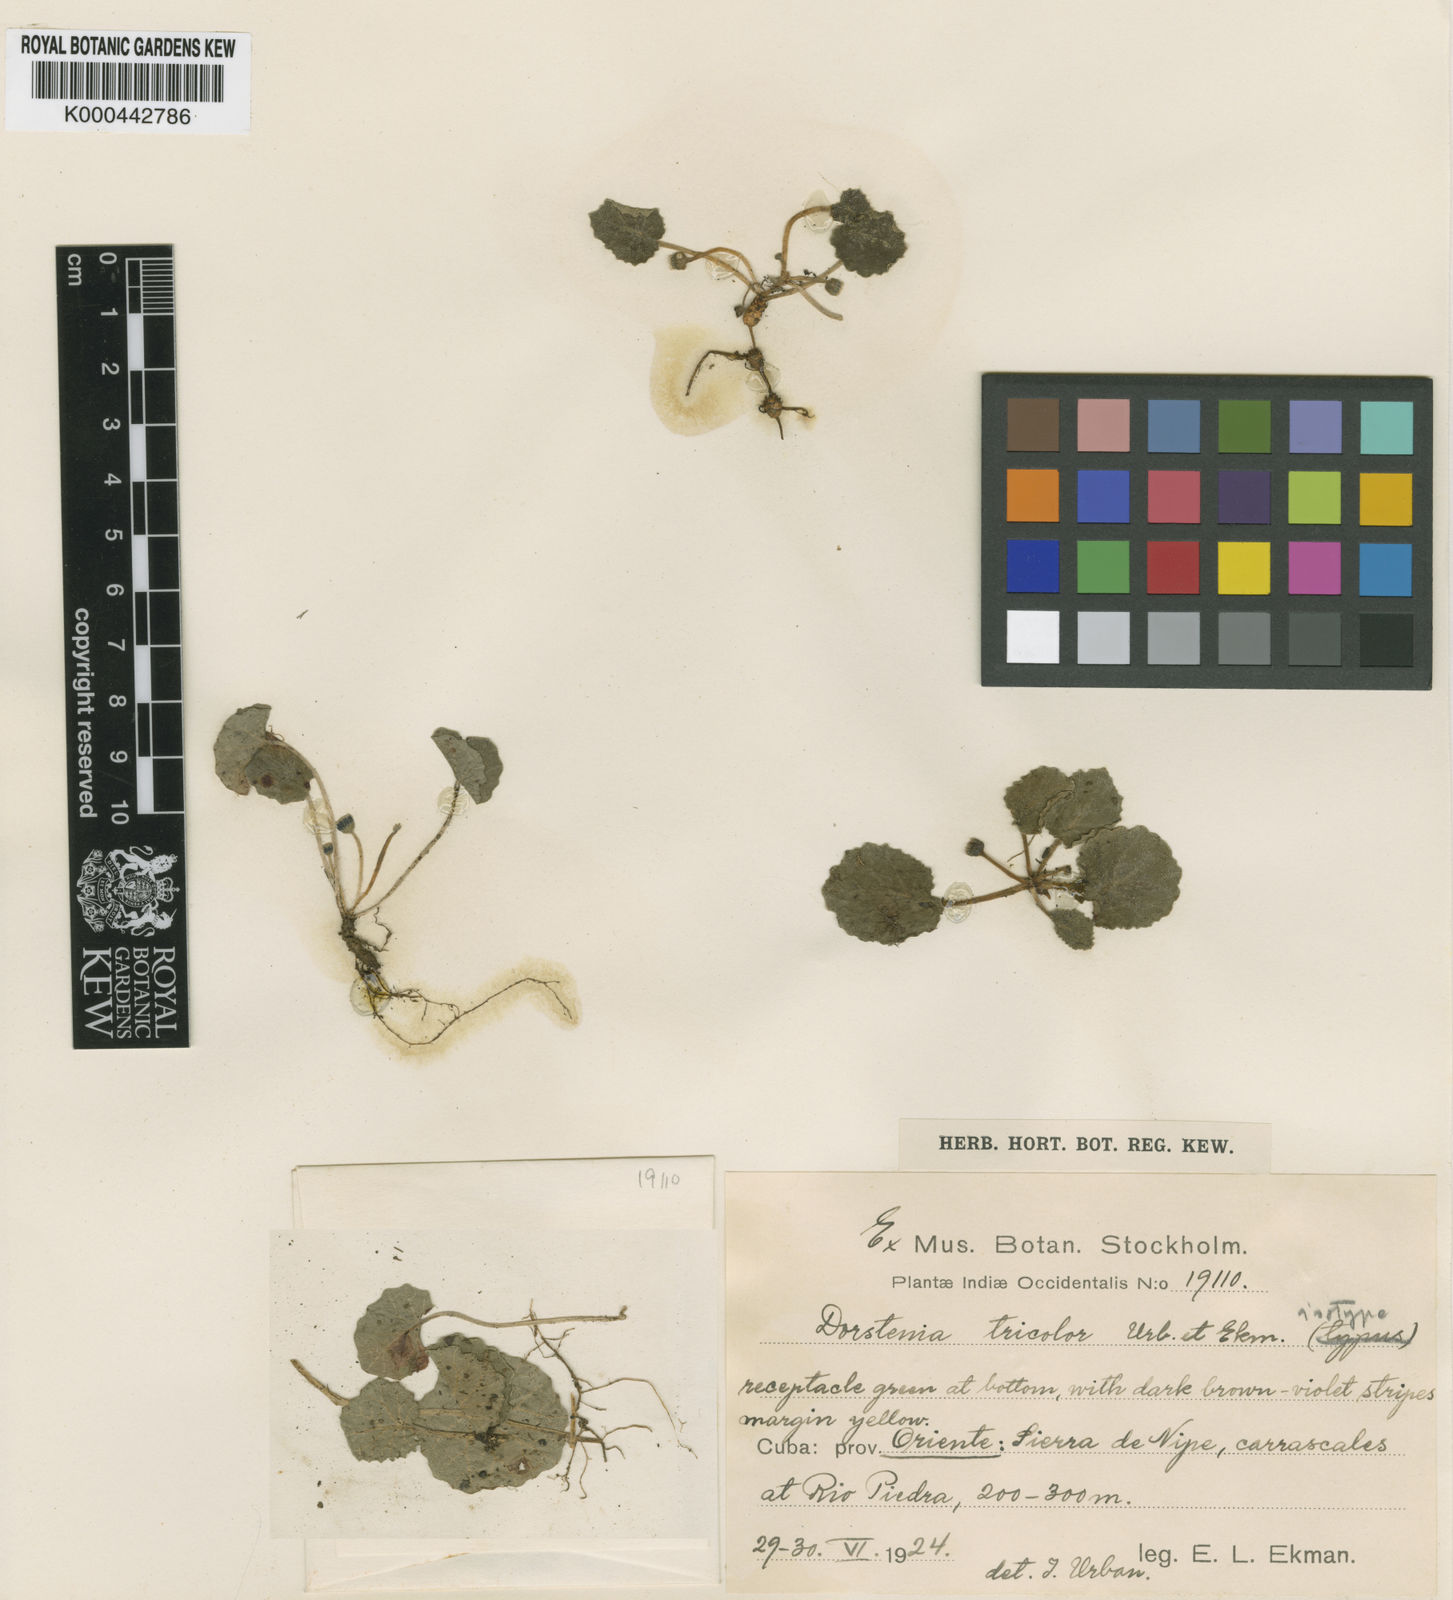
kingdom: Plantae
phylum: Tracheophyta
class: Magnoliopsida
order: Rosales
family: Moraceae
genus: Dorstenia
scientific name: Dorstenia rocana
